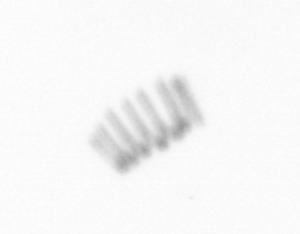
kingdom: Chromista
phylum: Ochrophyta
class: Bacillariophyceae
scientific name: Bacillariophyceae
